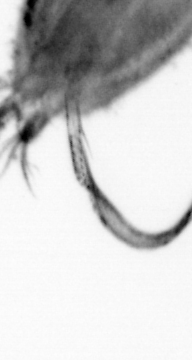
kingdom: Animalia
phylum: Annelida
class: Polychaeta
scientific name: Polychaeta
